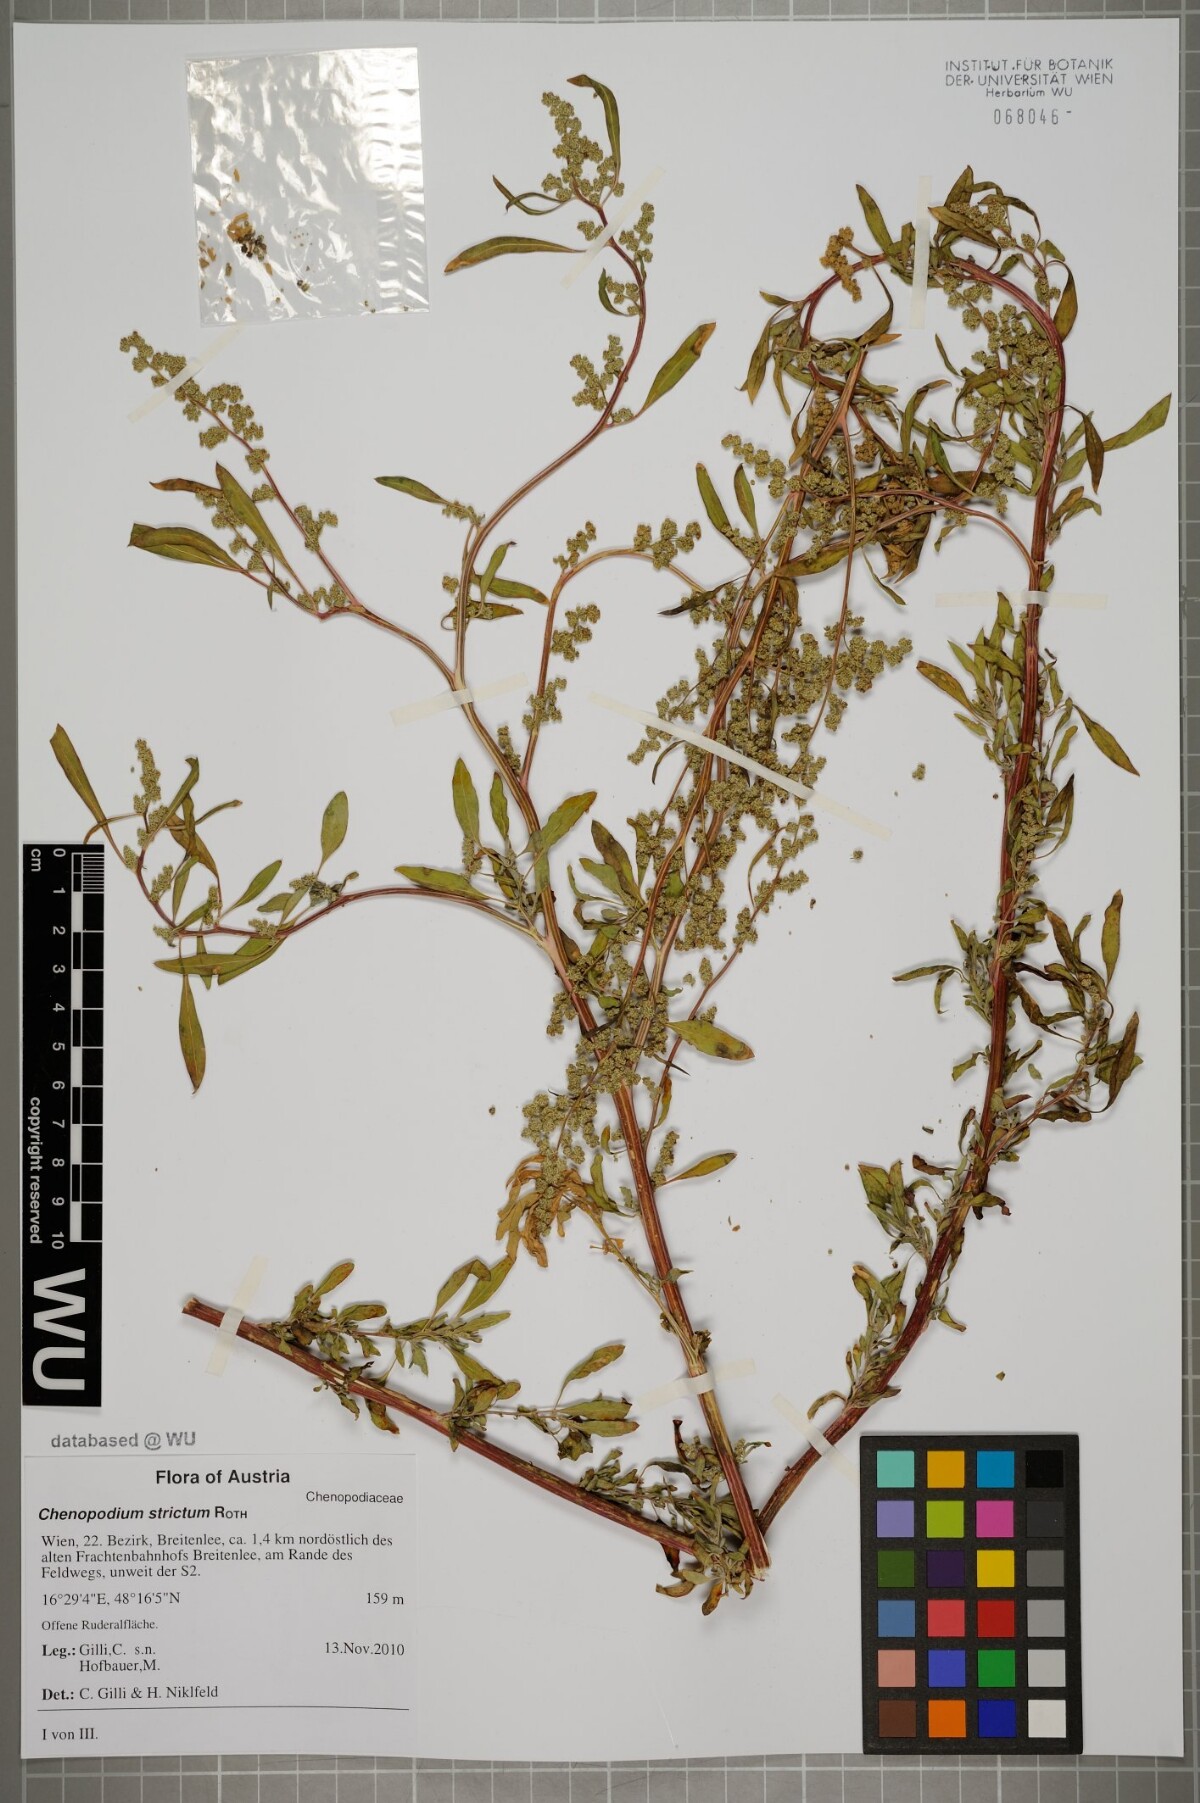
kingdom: Plantae
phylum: Tracheophyta
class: Magnoliopsida
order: Caryophyllales
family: Amaranthaceae
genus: Chenopodium
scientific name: Chenopodium album
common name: Fat-hen
